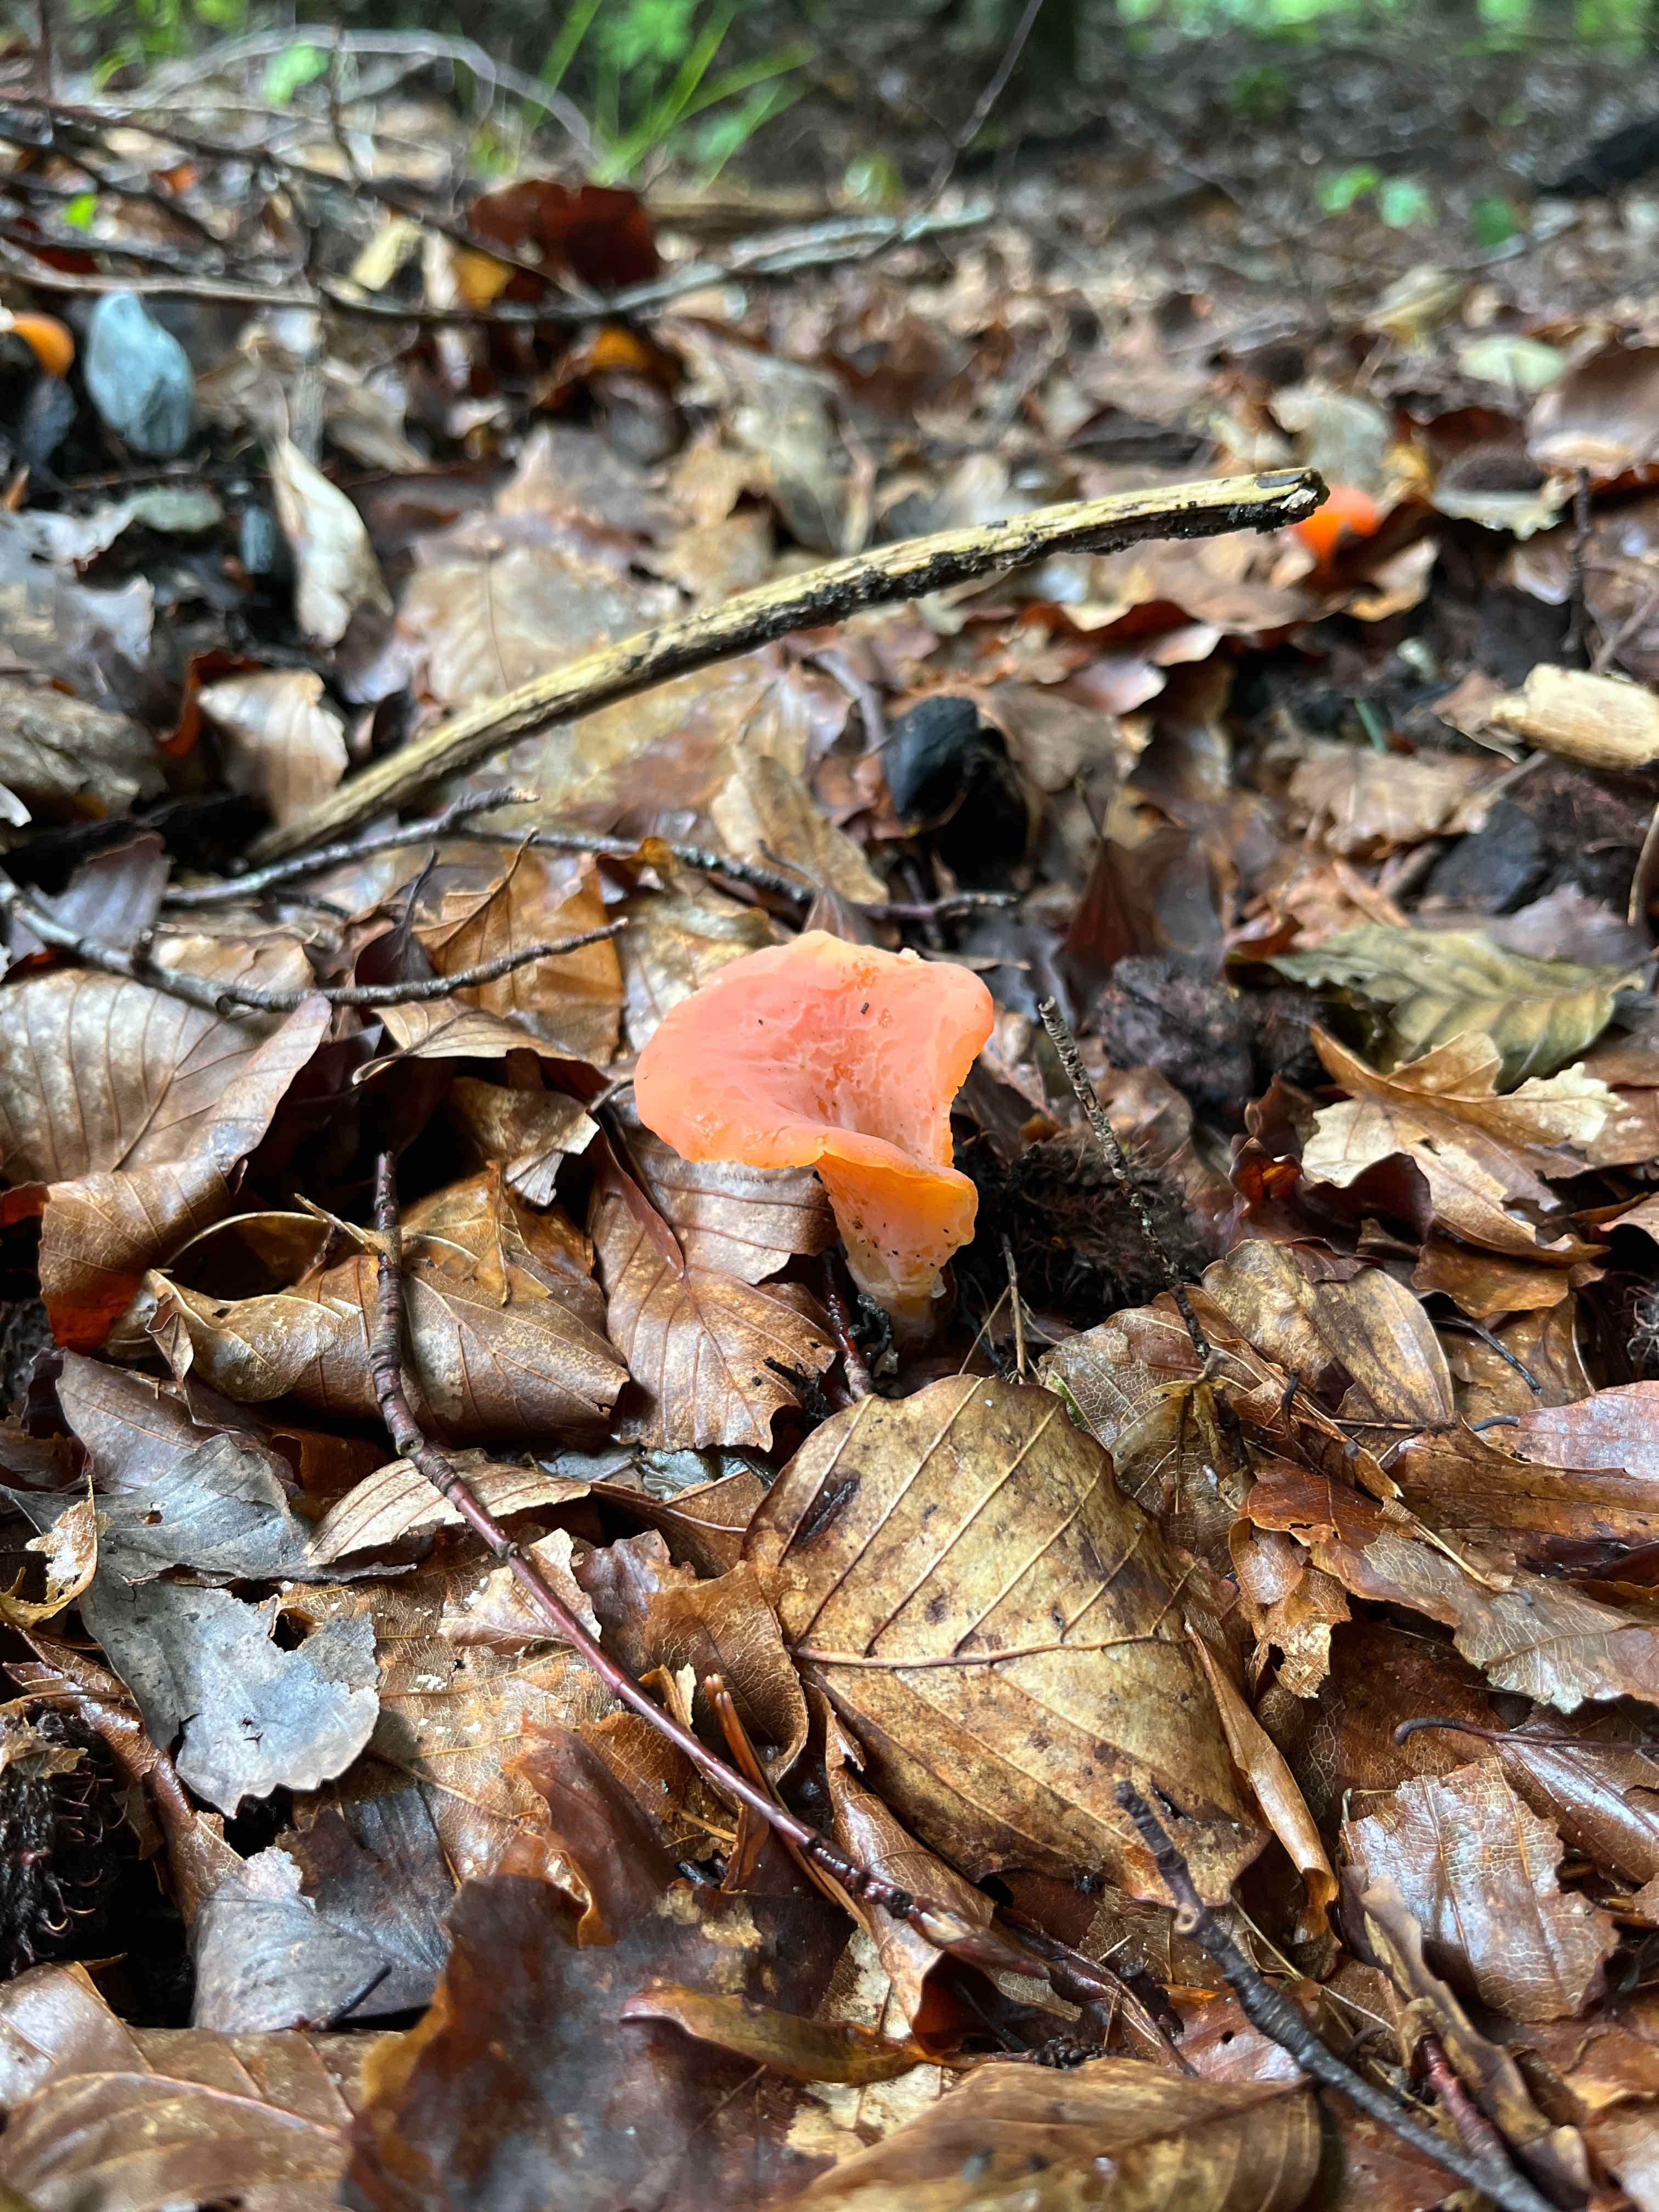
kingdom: Fungi
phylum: Basidiomycota
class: Agaricomycetes
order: Auriculariales
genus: Guepinia
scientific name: Guepinia helvelloides
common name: bævretunge
